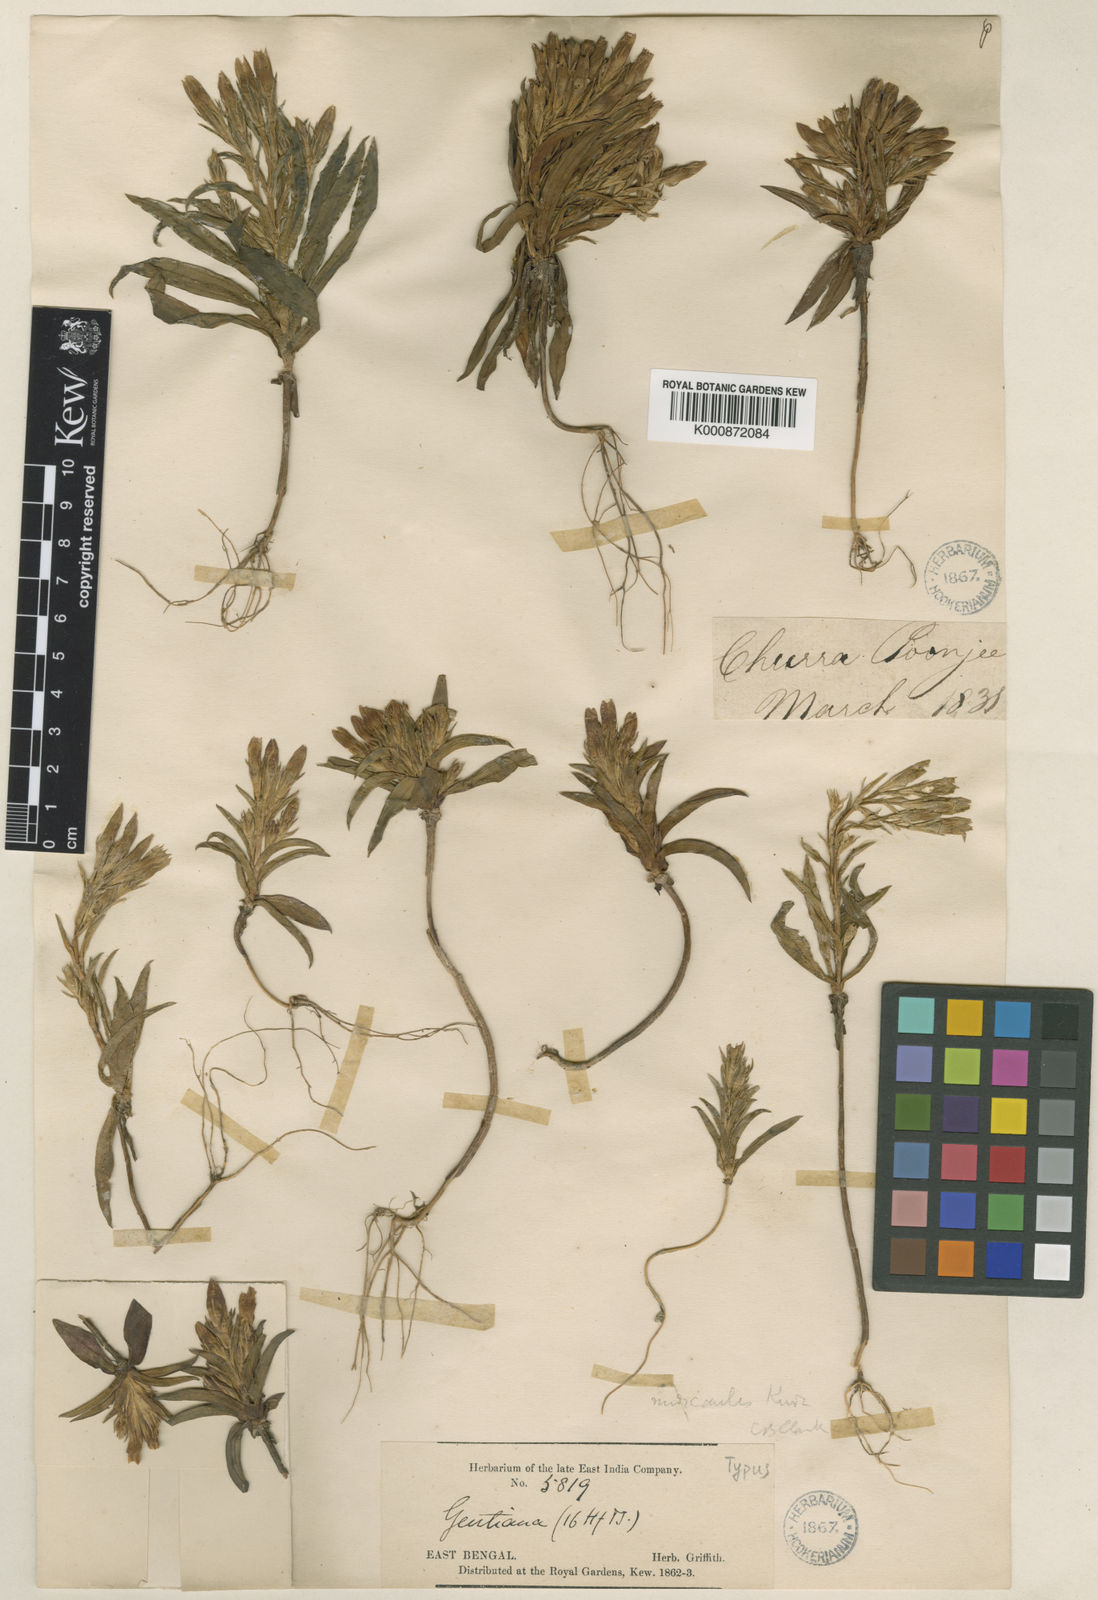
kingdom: Plantae
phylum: Tracheophyta
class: Magnoliopsida
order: Gentianales
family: Gentianaceae
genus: Gentiana
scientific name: Gentiana nudicaulis
